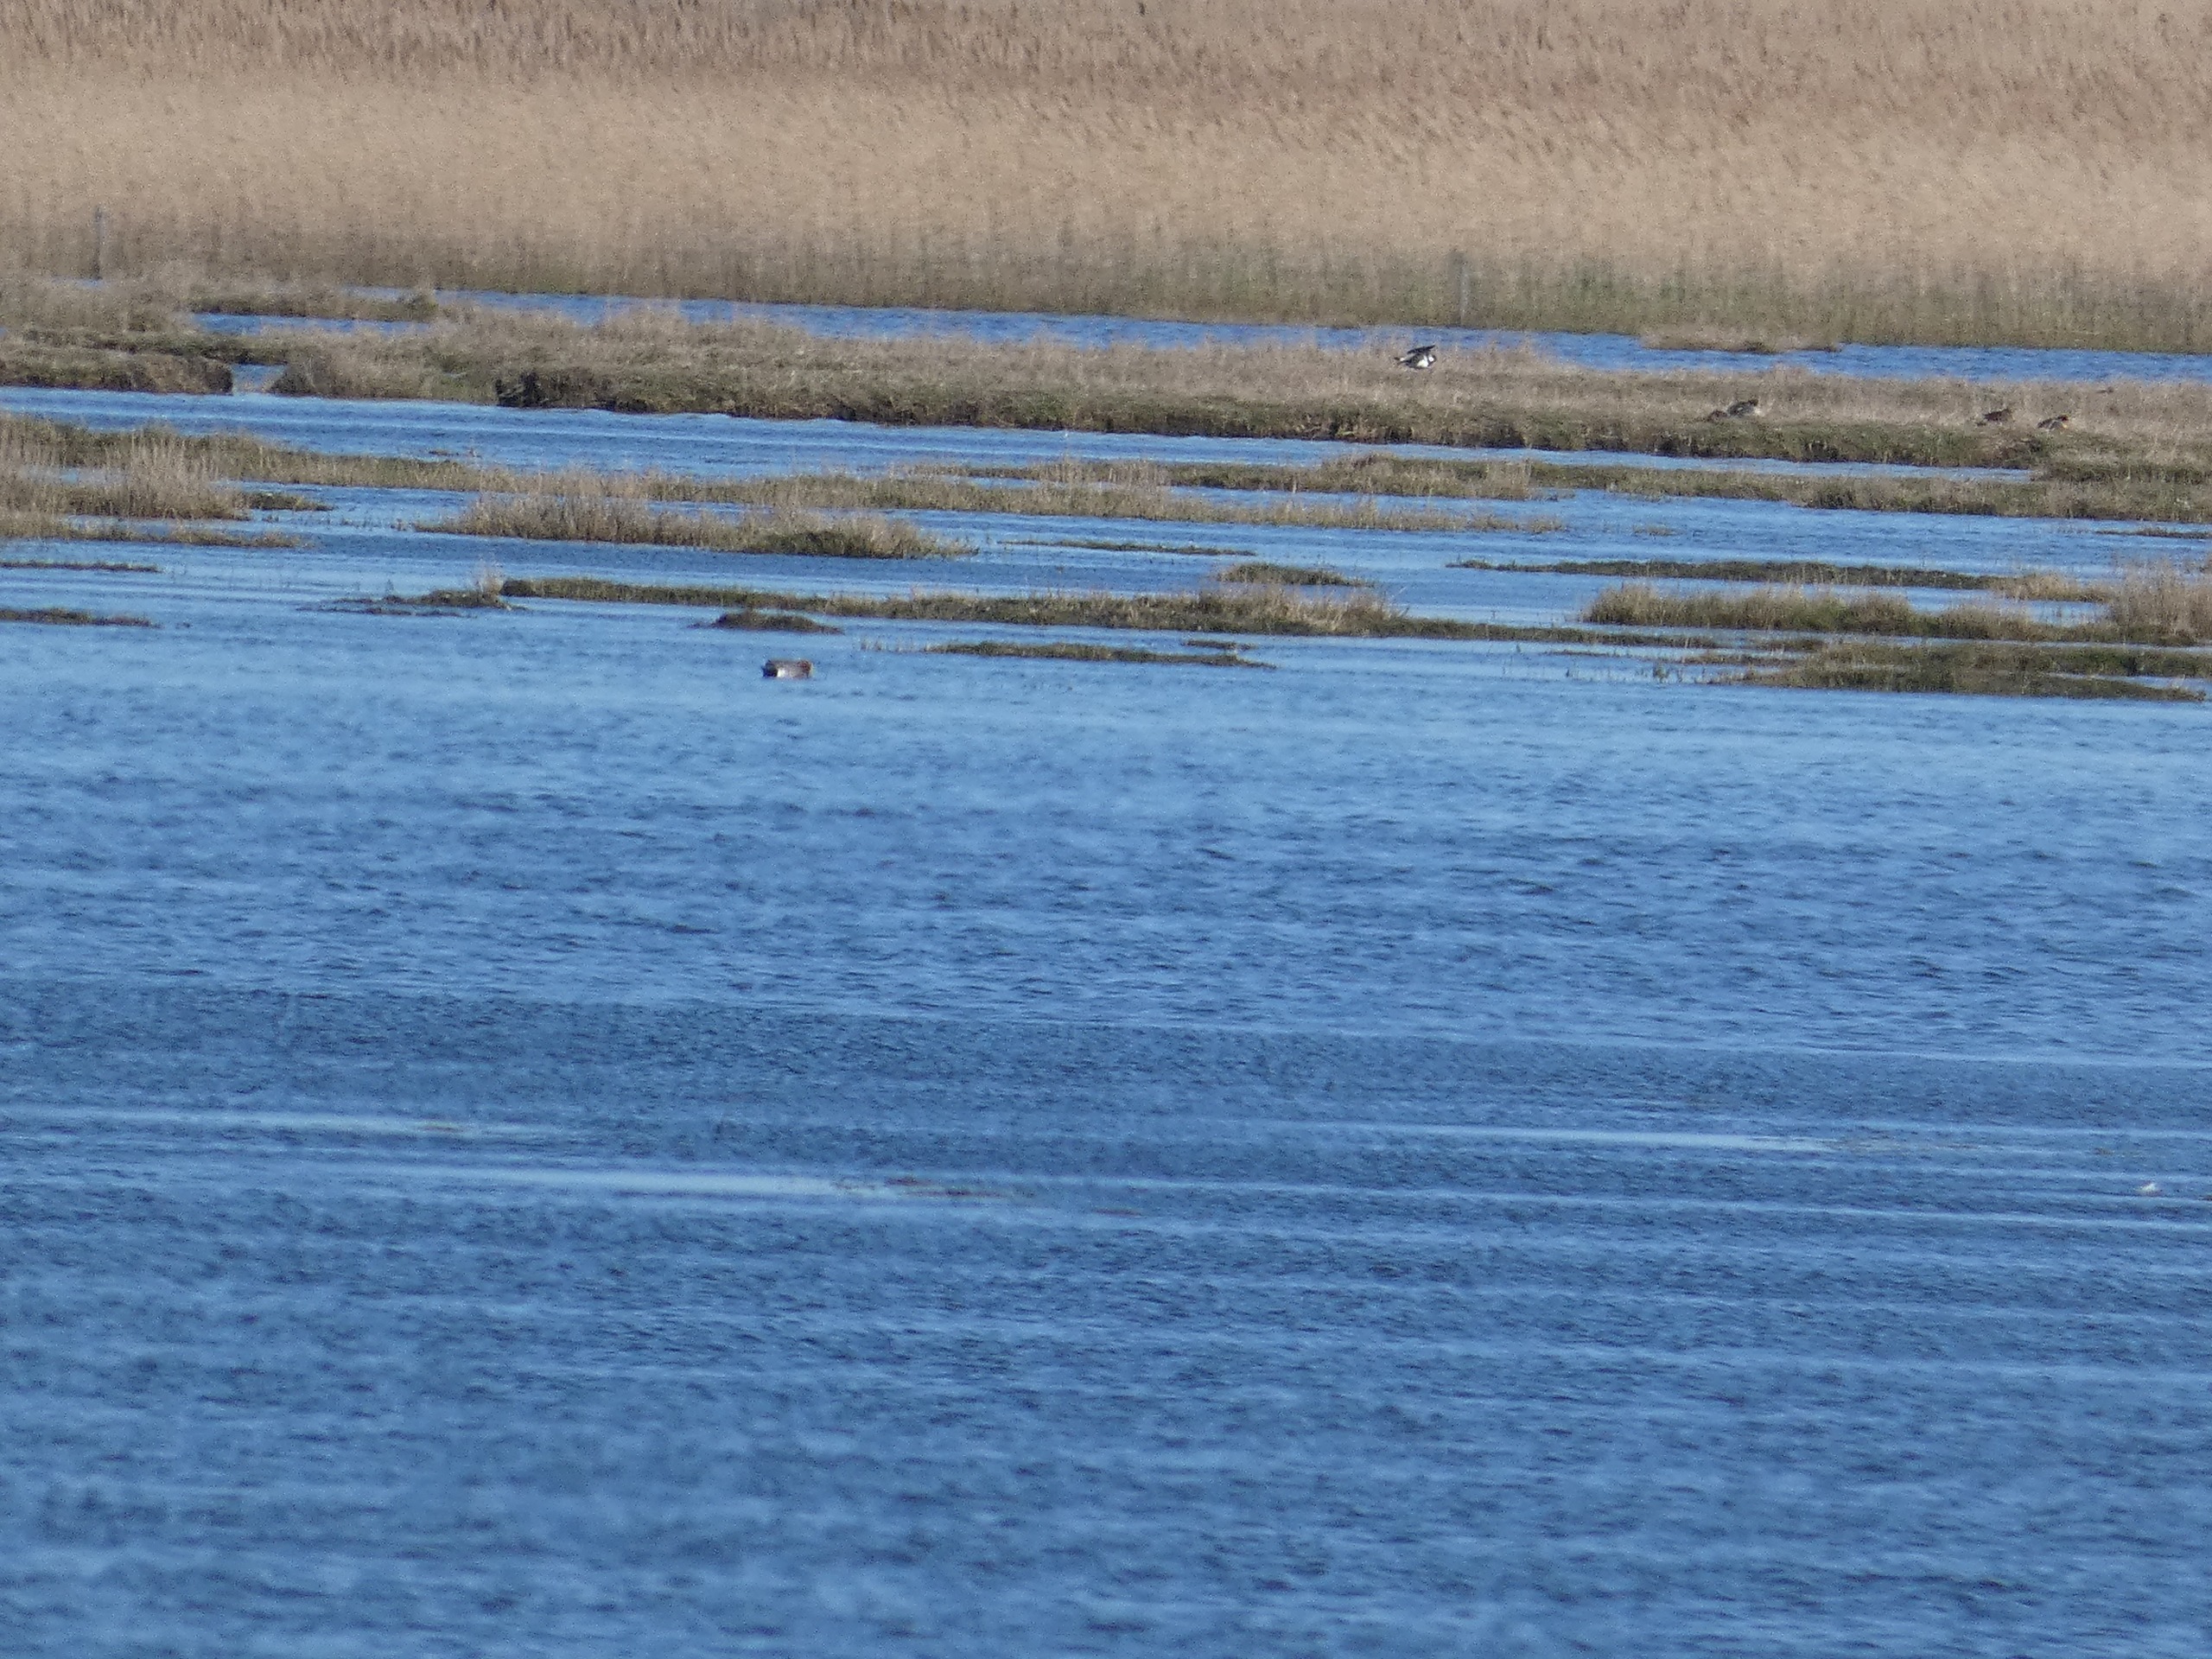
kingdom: Animalia
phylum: Chordata
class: Aves
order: Charadriiformes
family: Charadriidae
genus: Vanellus
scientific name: Vanellus vanellus
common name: Vibe
